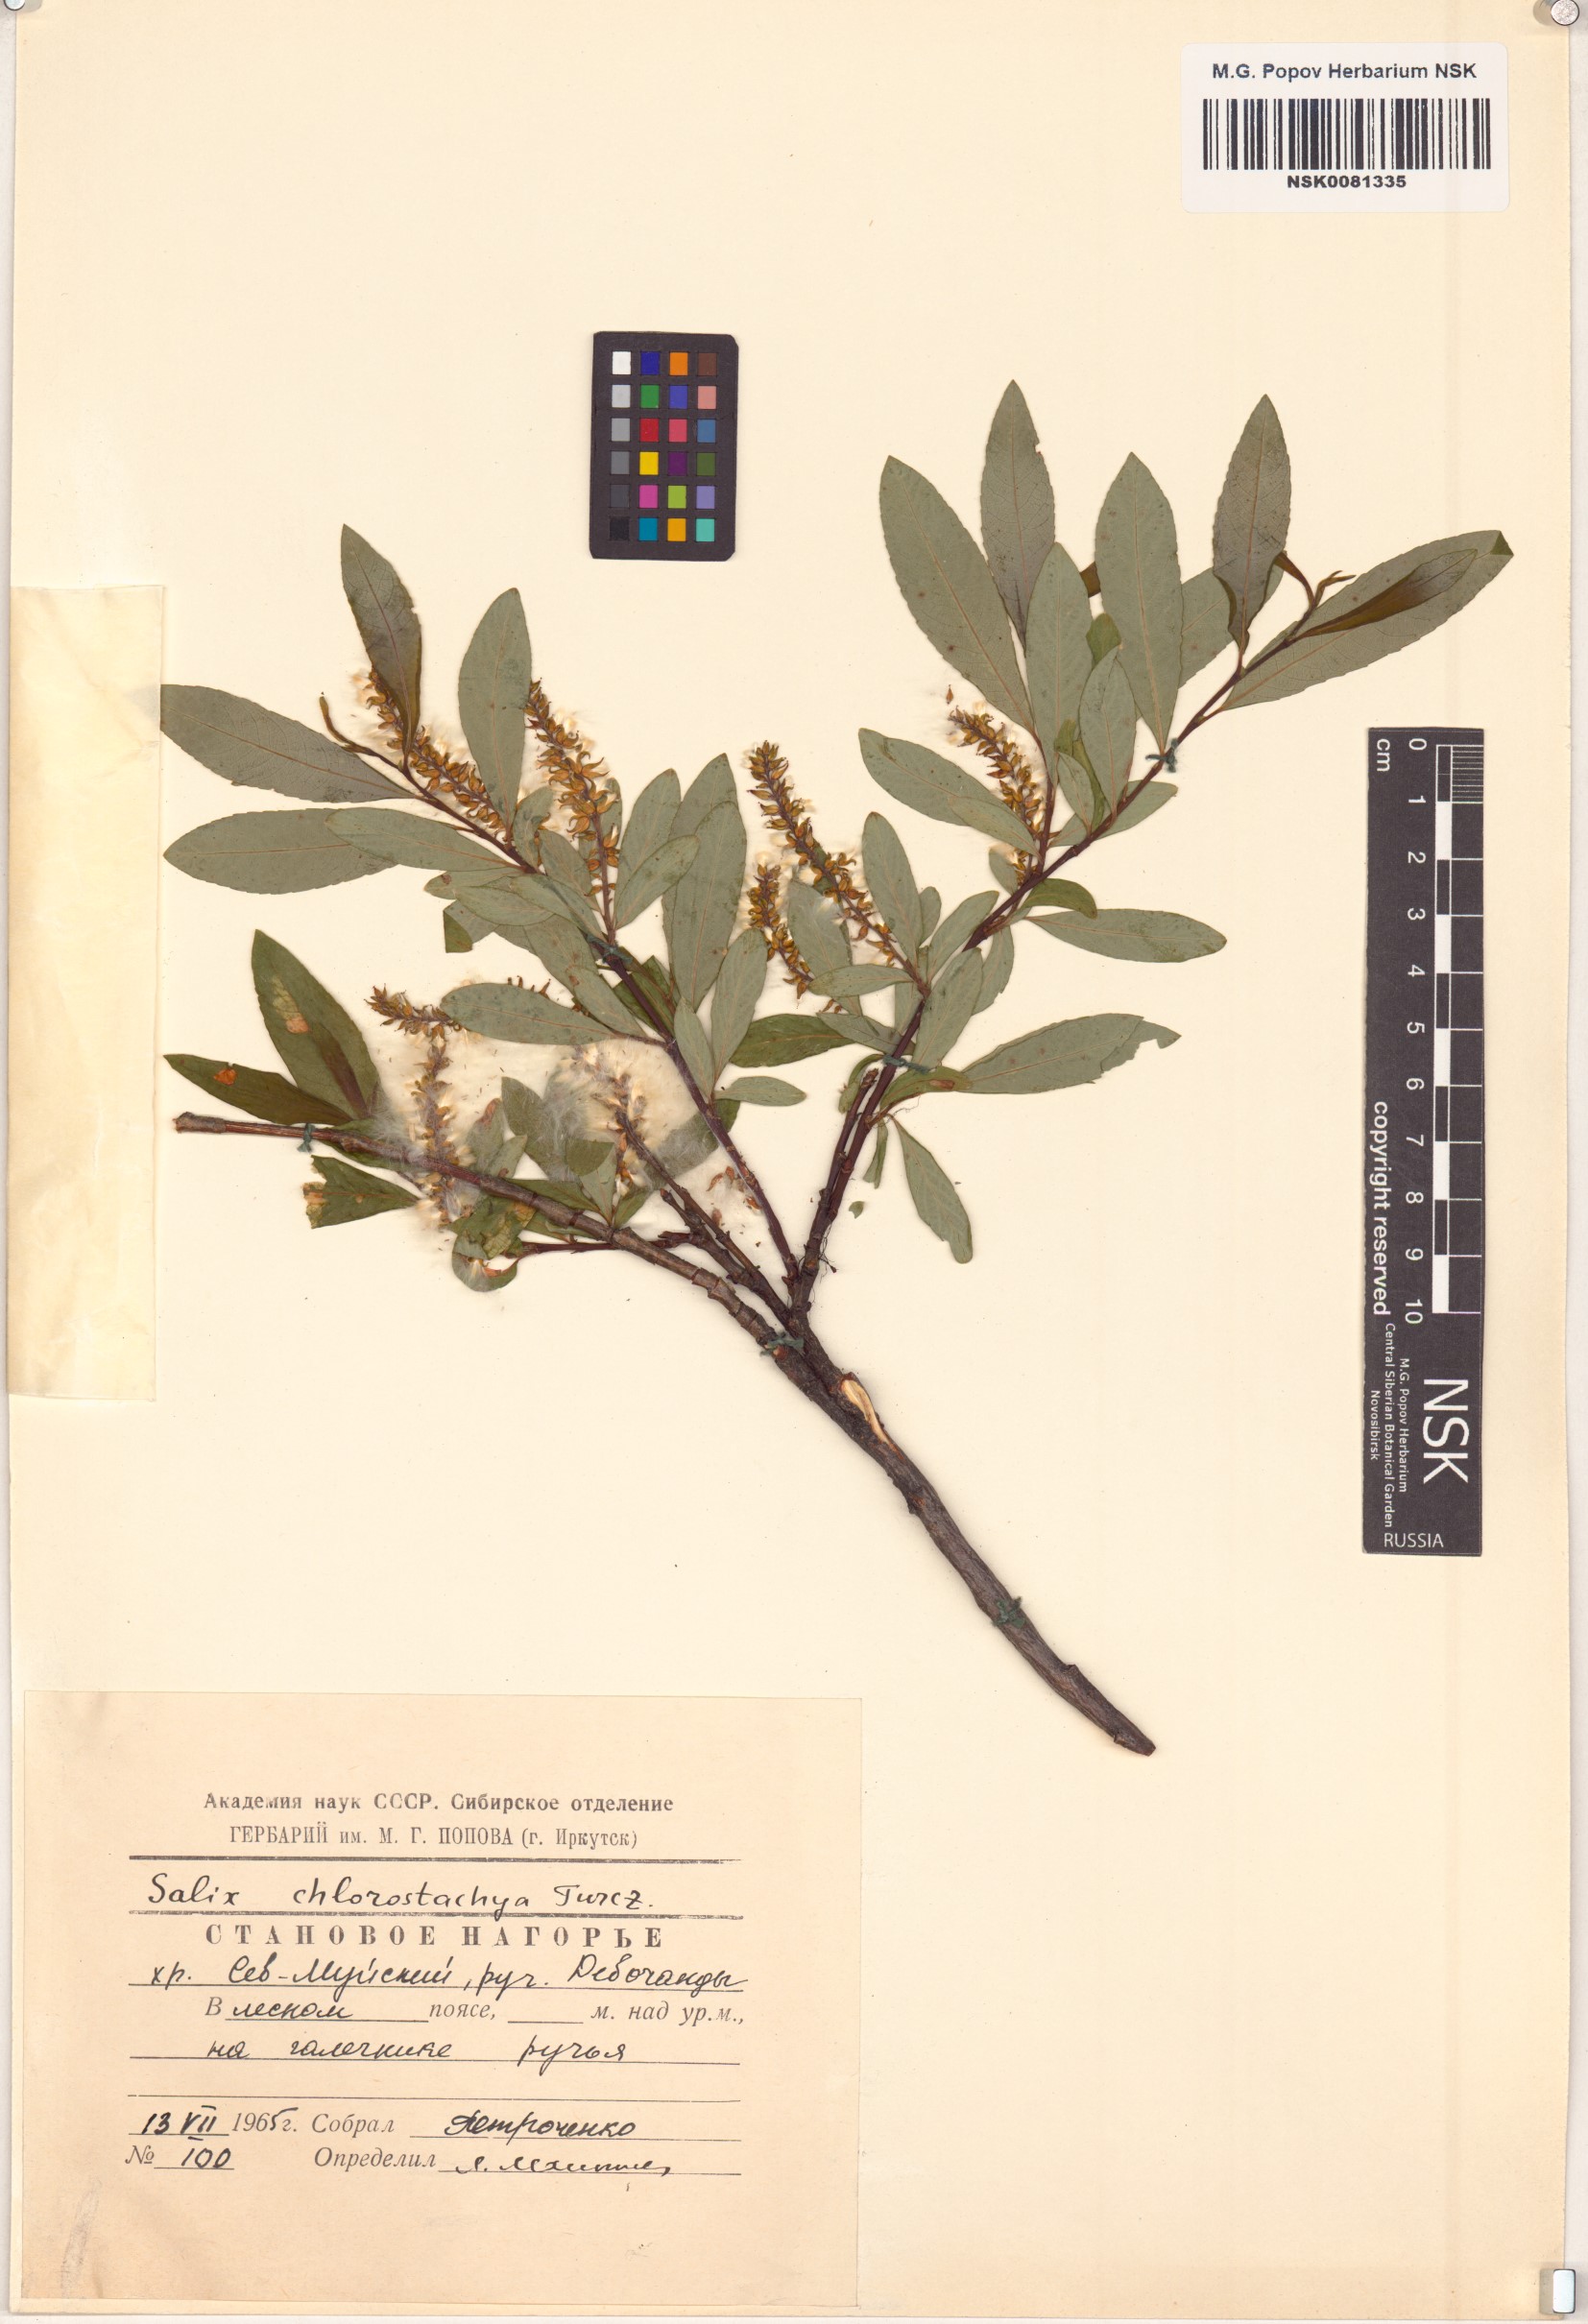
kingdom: Plantae
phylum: Tracheophyta
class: Magnoliopsida
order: Malpighiales
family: Salicaceae
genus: Salix
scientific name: Salix rhamnifolia
